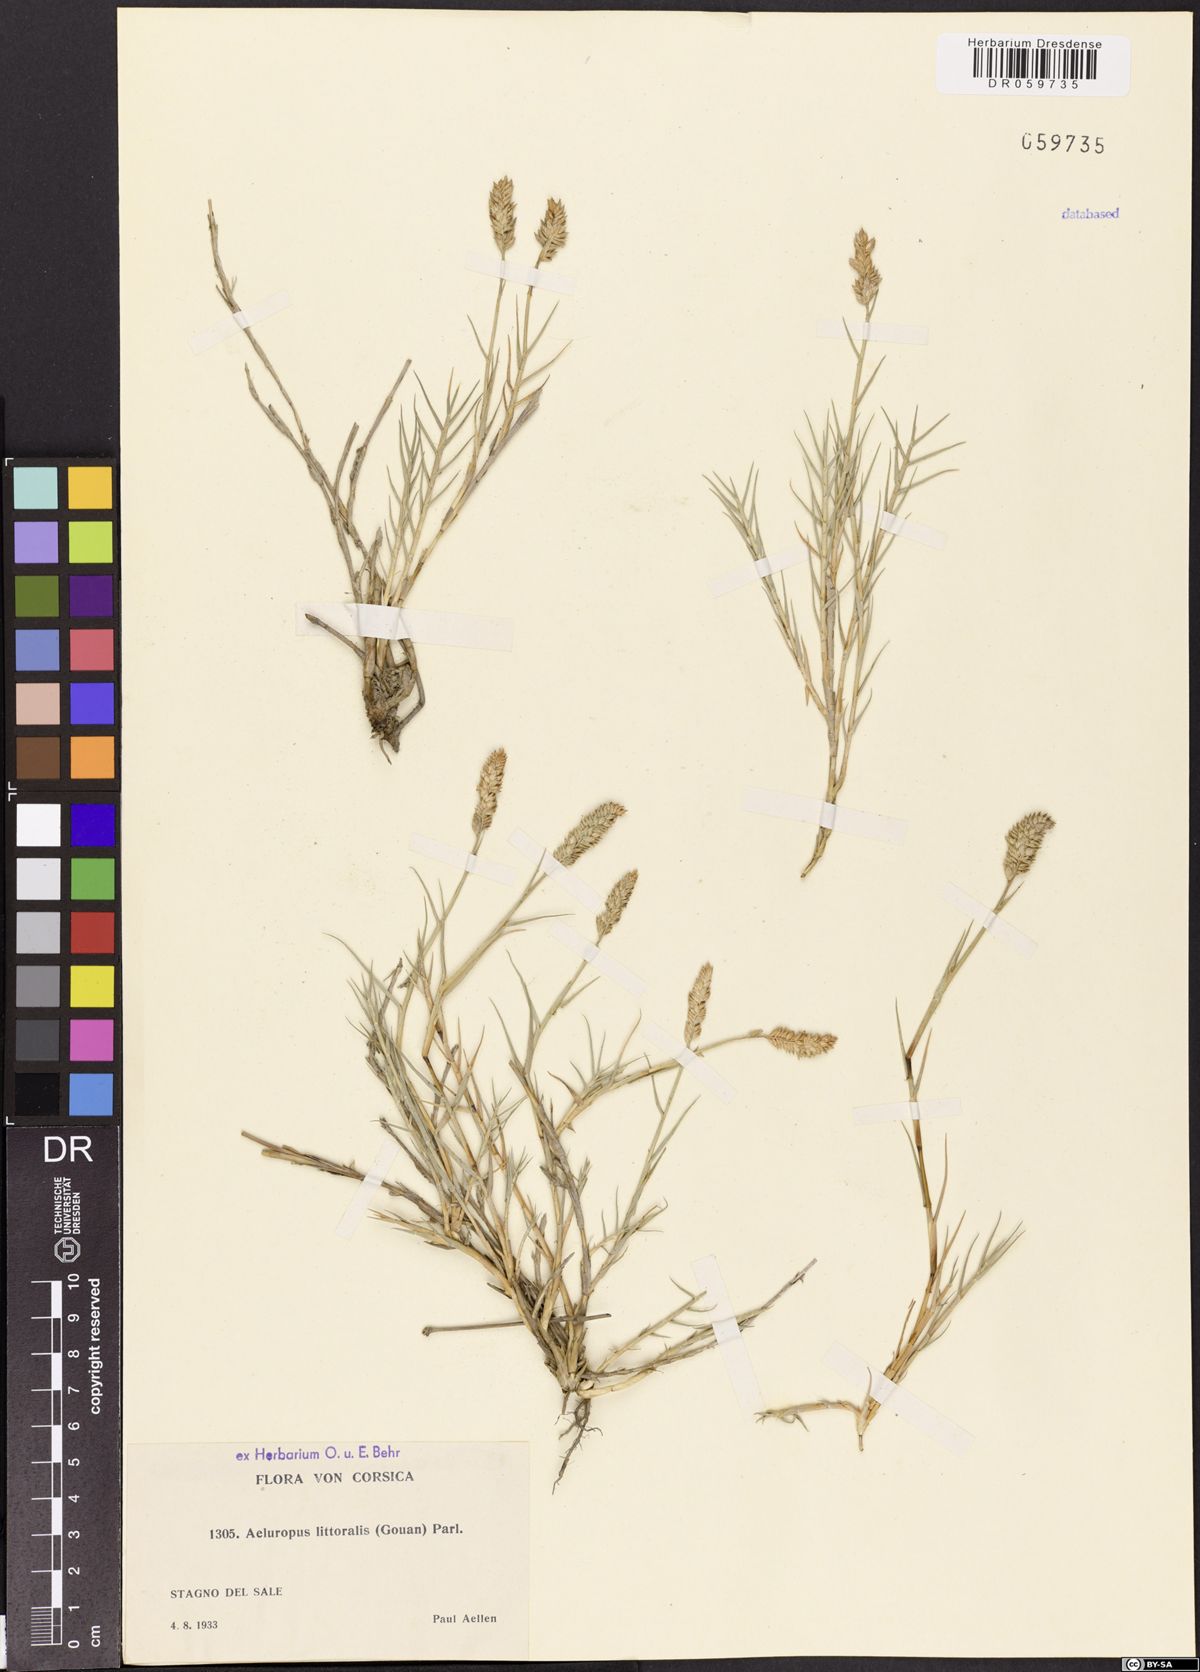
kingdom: Plantae
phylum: Tracheophyta
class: Liliopsida
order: Poales
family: Poaceae
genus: Aeluropus
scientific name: Aeluropus littoralis
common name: Indian walnut
